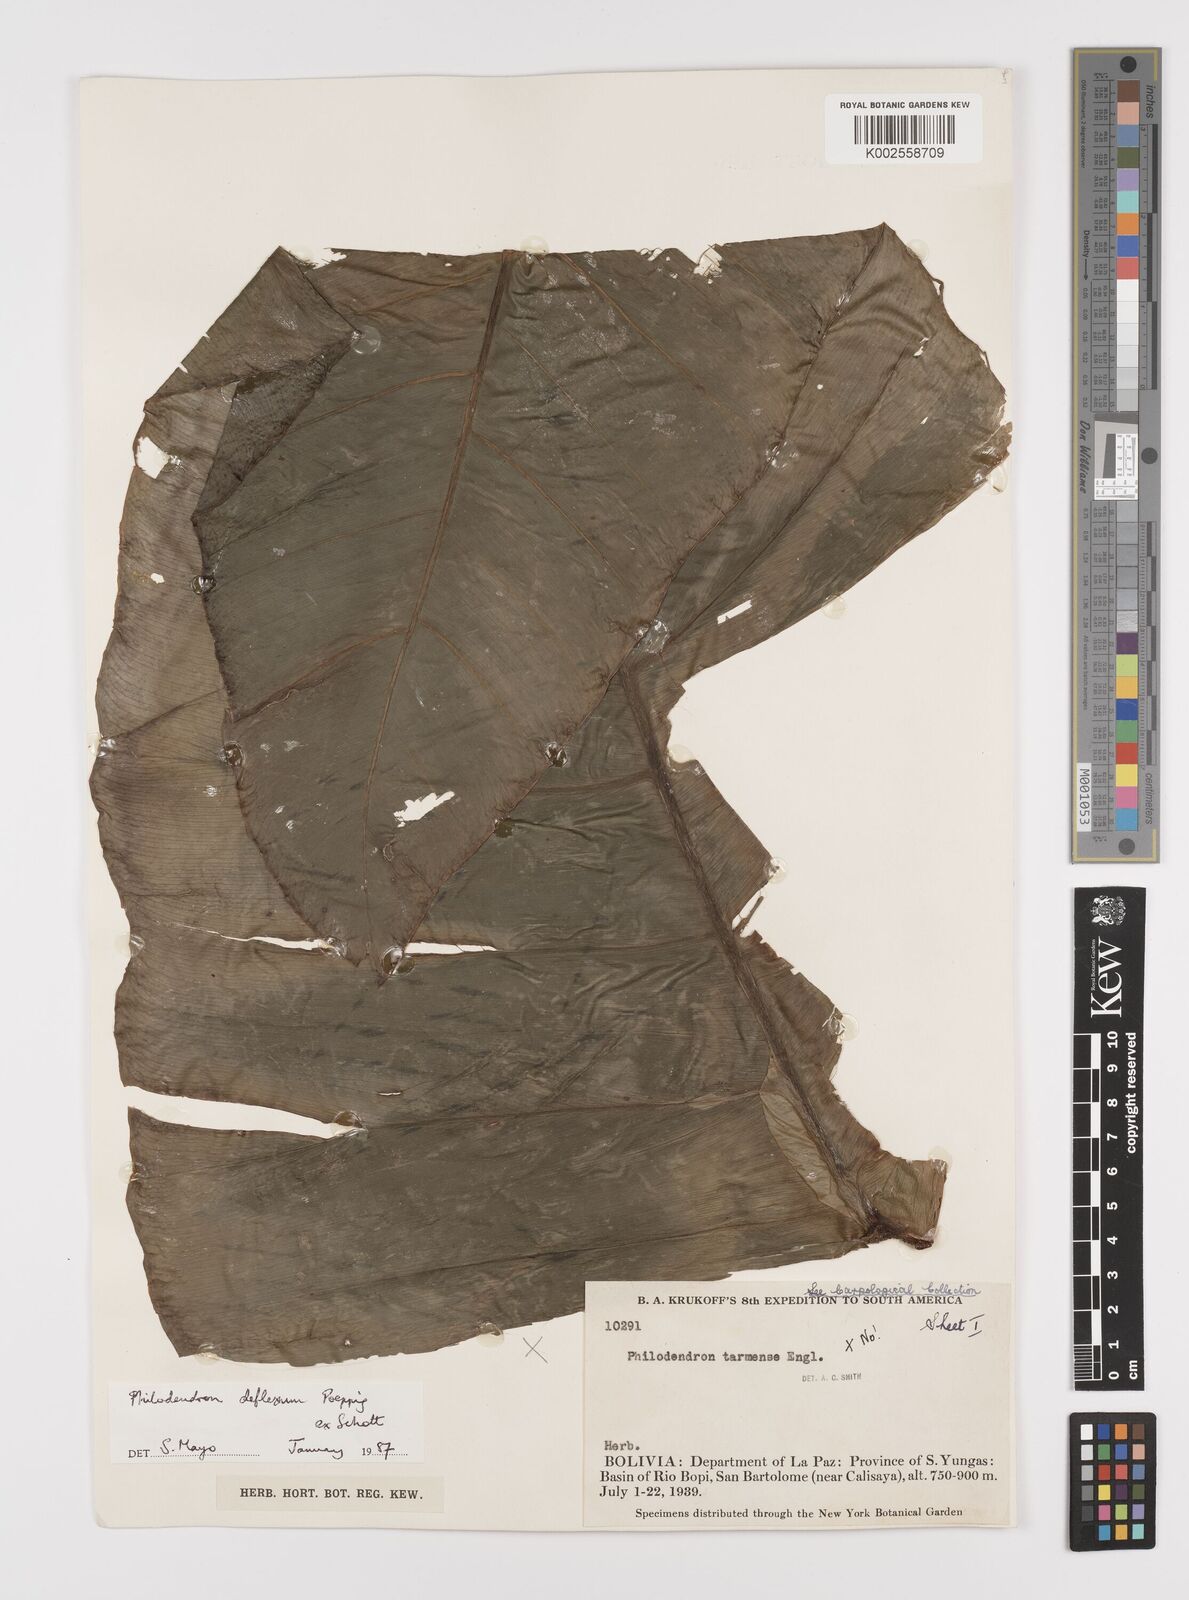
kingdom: Plantae
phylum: Tracheophyta
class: Liliopsida
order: Alismatales
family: Araceae
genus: Philodendron
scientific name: Philodendron deflexum
